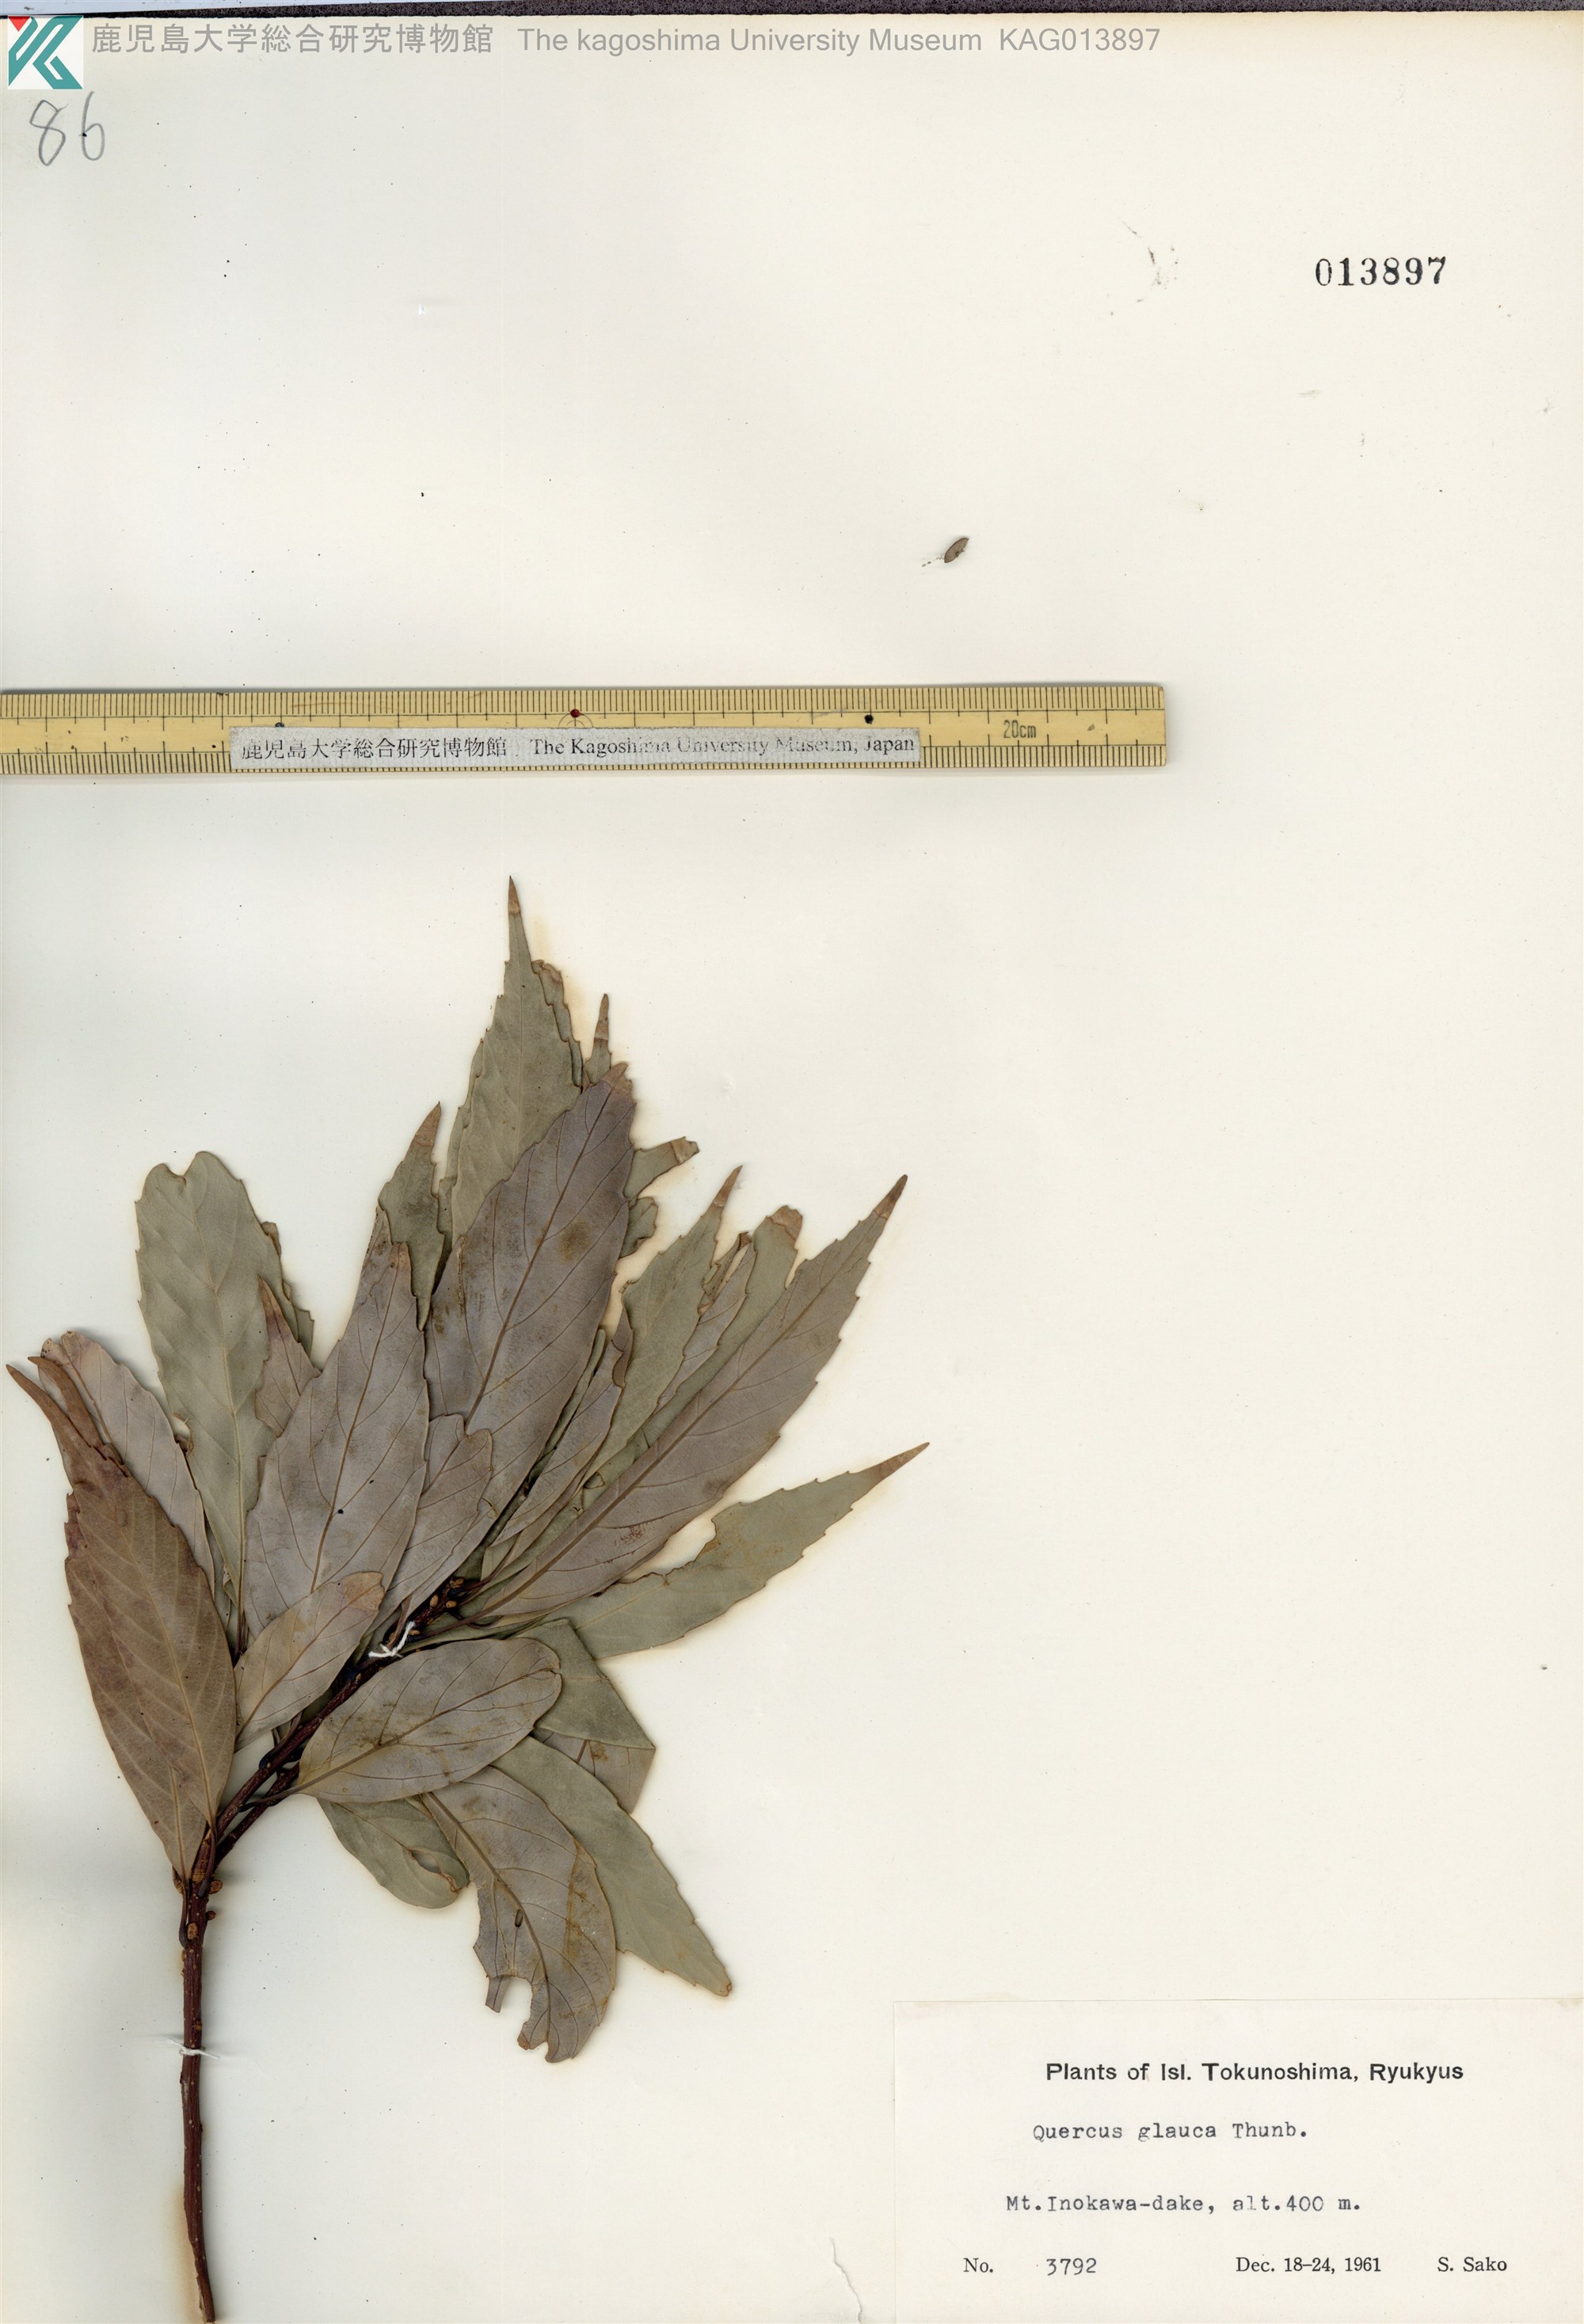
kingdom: Plantae
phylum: Tracheophyta
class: Magnoliopsida
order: Fagales
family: Fagaceae
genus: Quercus
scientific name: Quercus glauca
